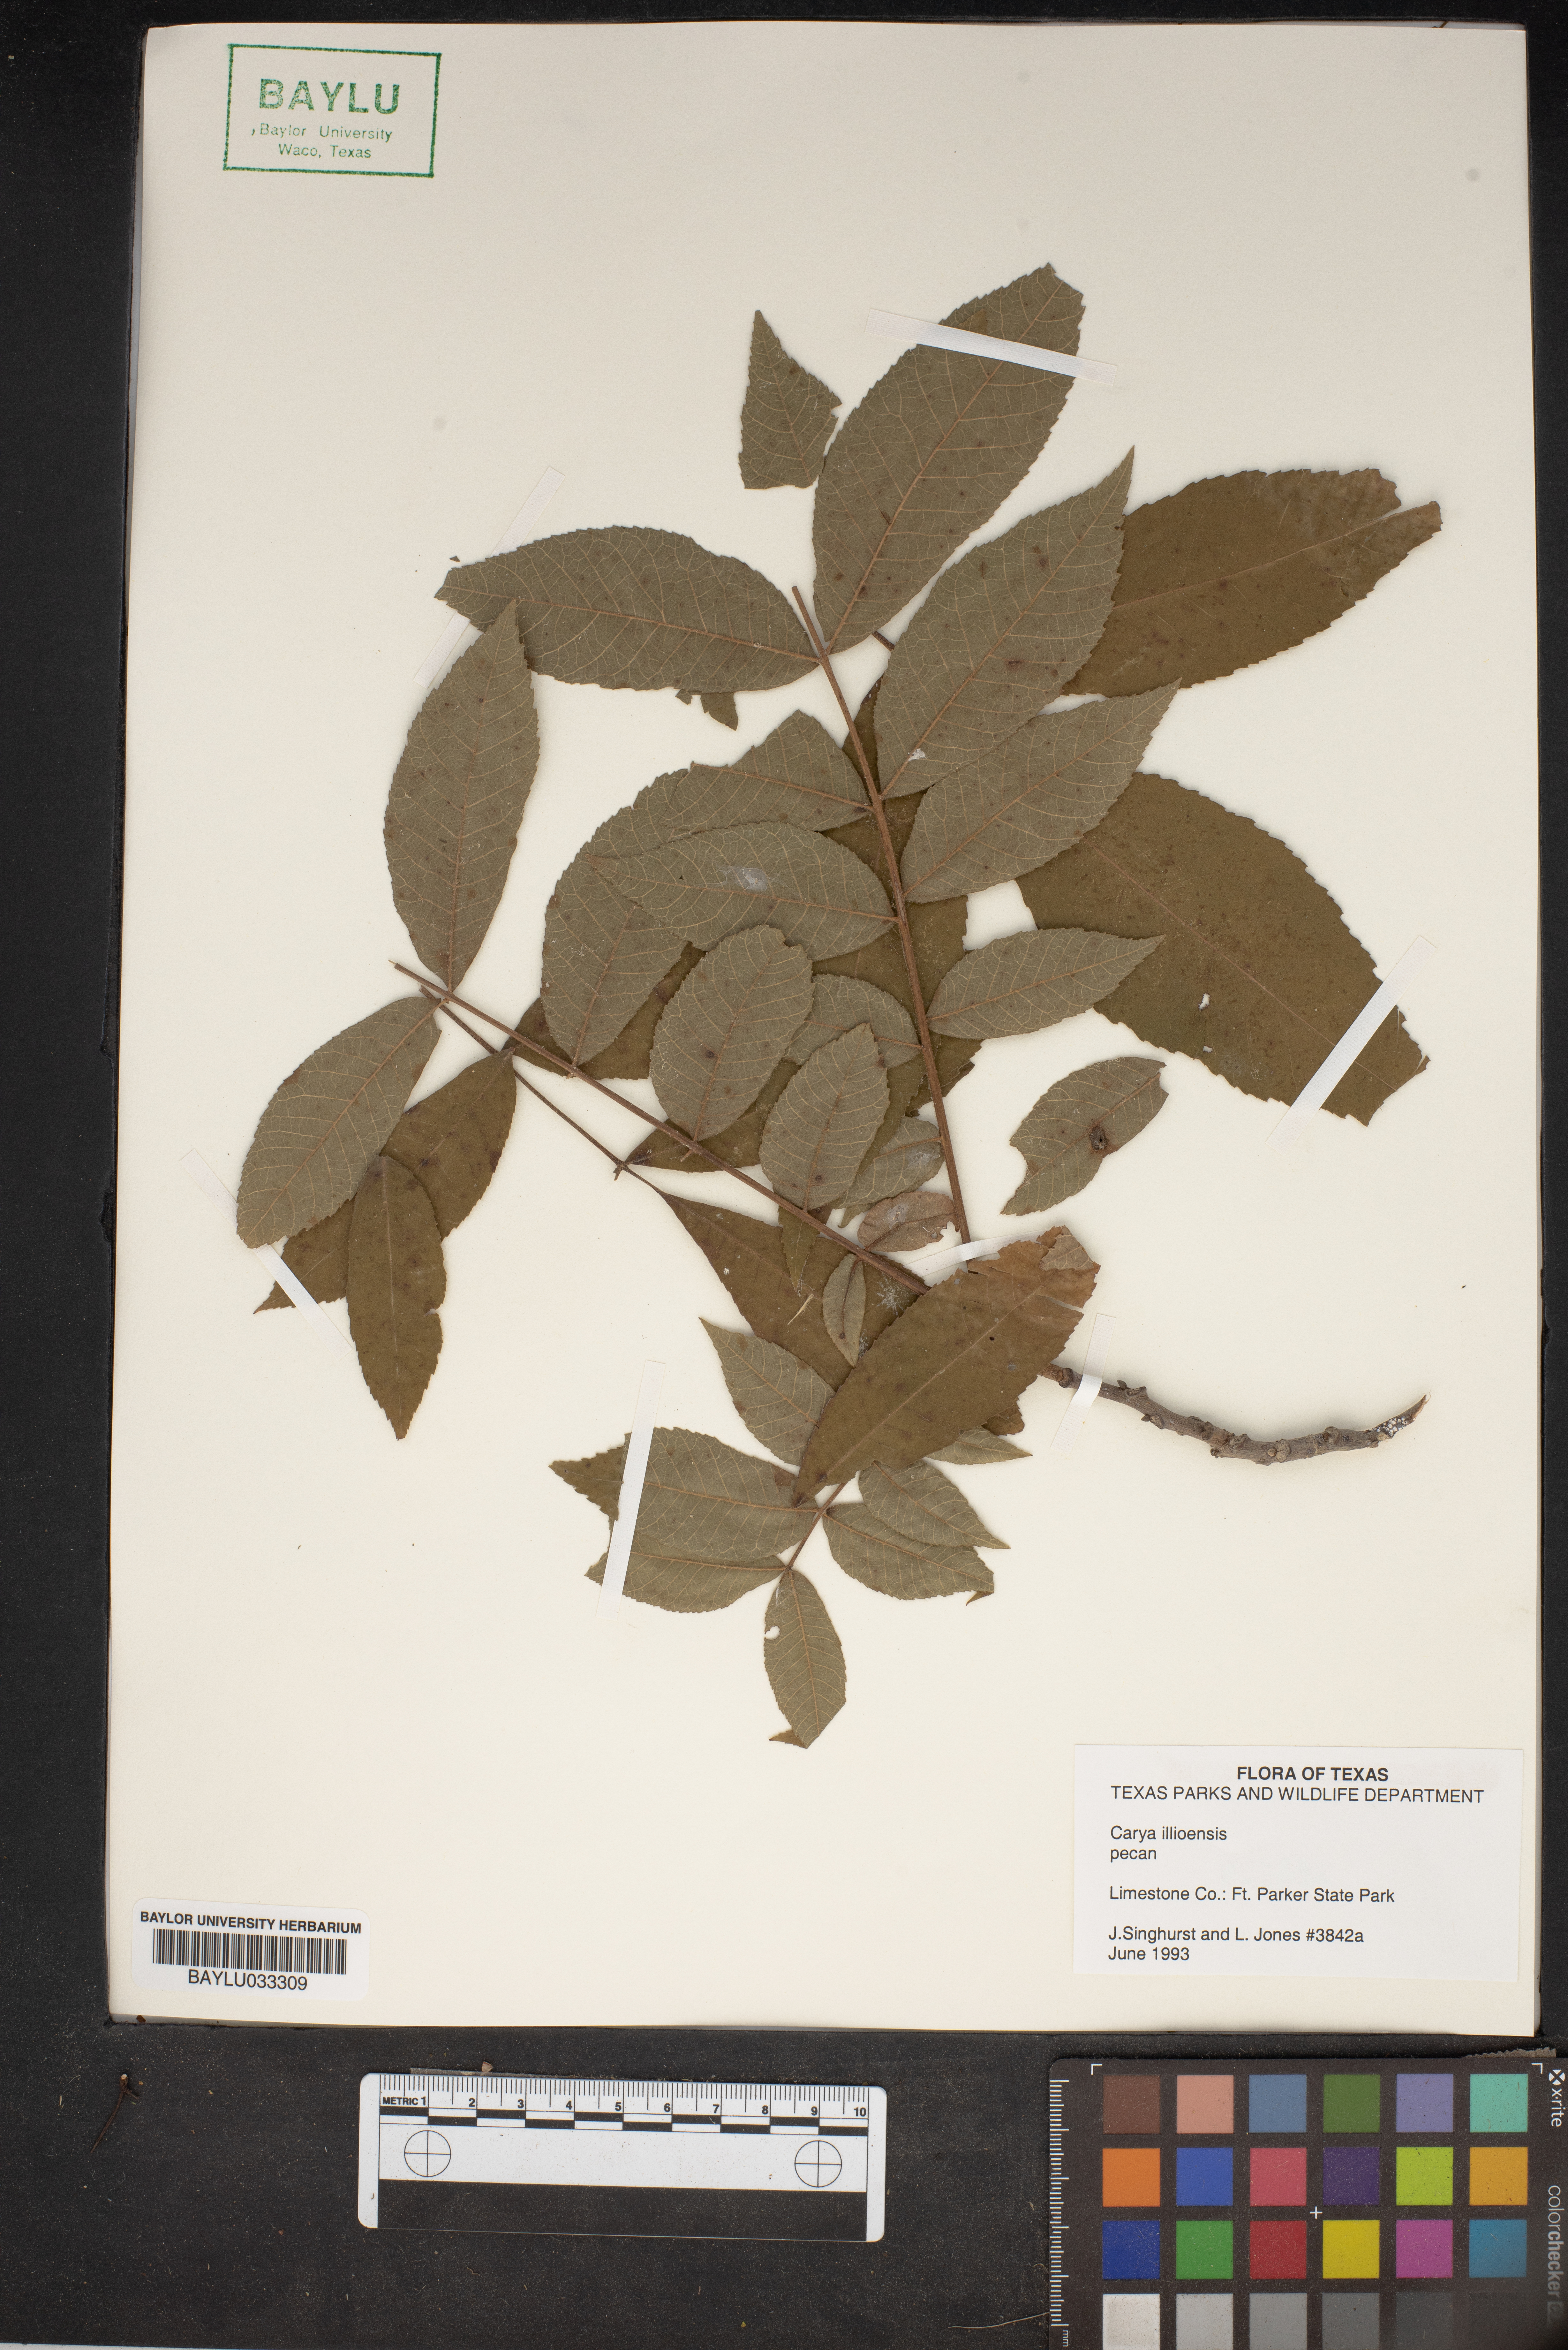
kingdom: Plantae
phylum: Tracheophyta
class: Magnoliopsida
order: Fagales
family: Juglandaceae
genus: Carya
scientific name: Carya
